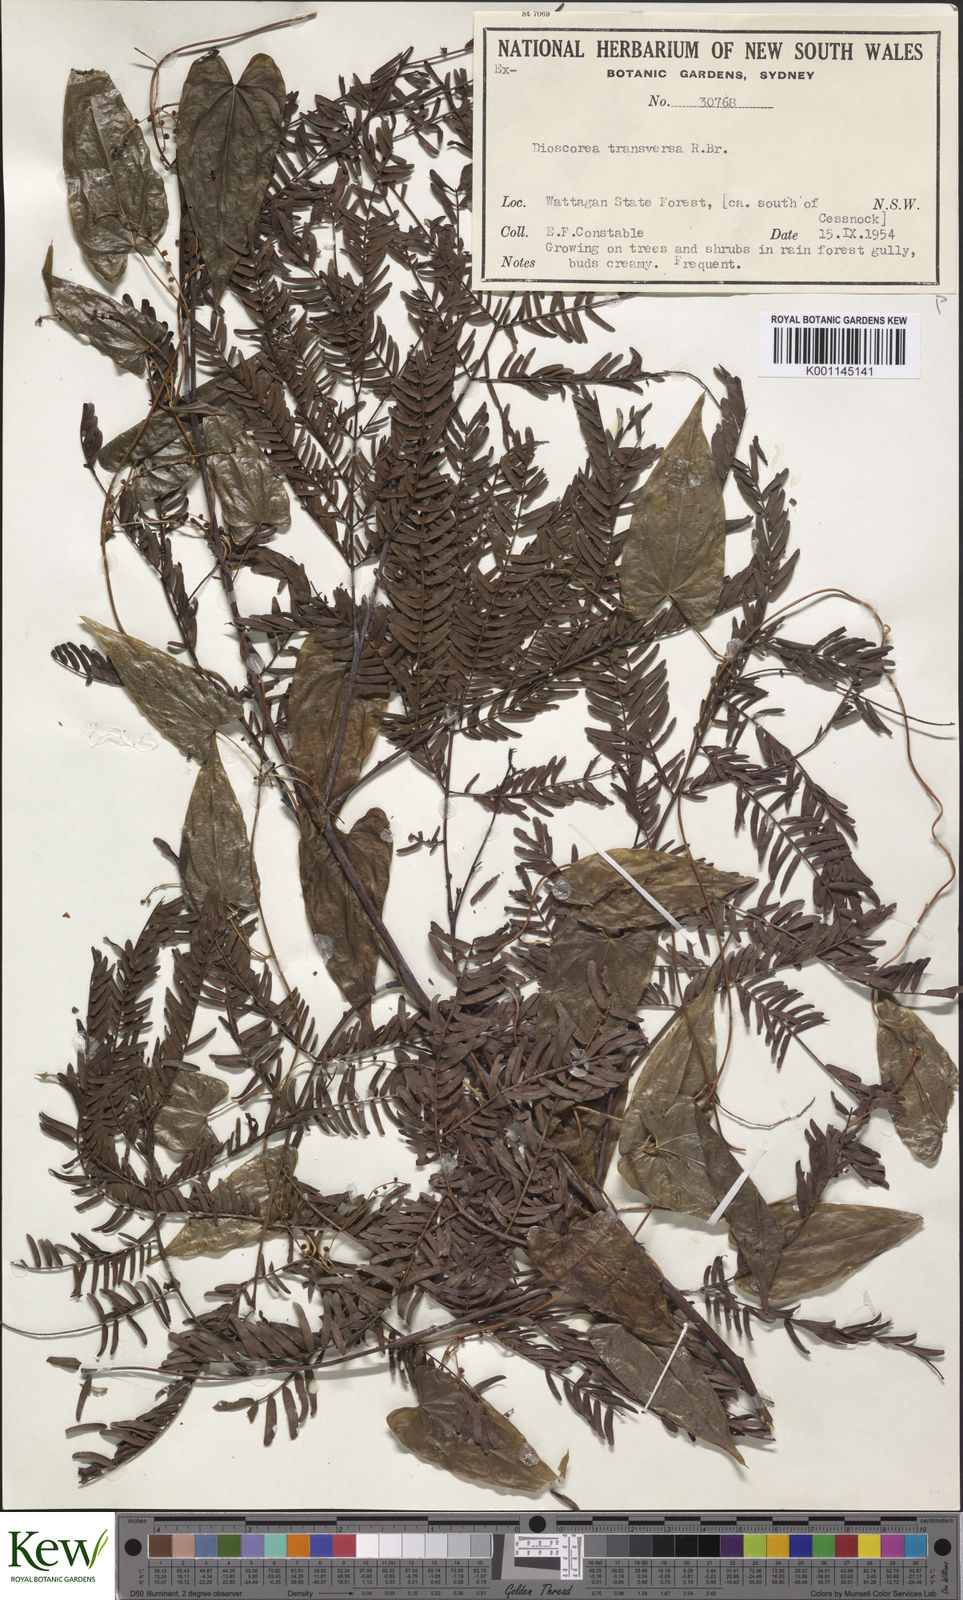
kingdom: Plantae
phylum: Tracheophyta
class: Liliopsida
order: Dioscoreales
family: Dioscoreaceae
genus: Dioscorea
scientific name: Dioscorea transversa
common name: Long yam
